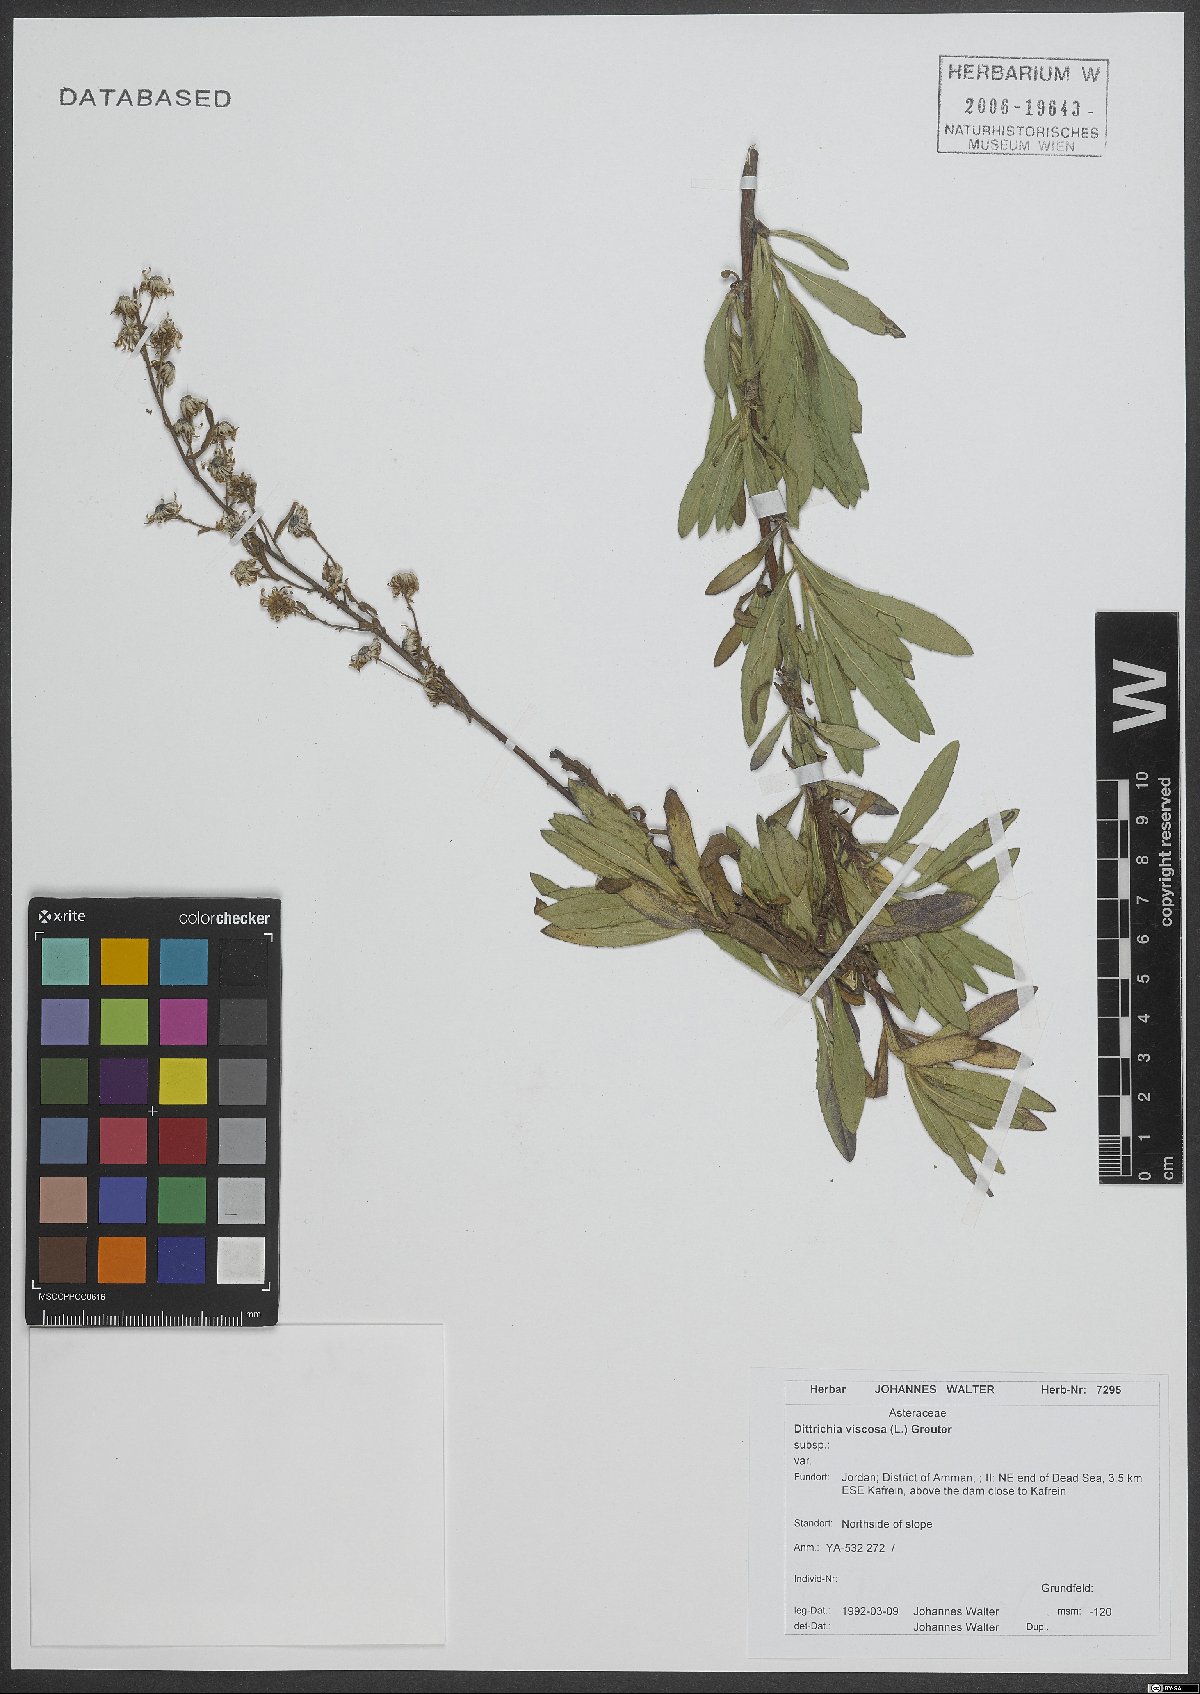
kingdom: Plantae
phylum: Tracheophyta
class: Magnoliopsida
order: Asterales
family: Asteraceae
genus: Dittrichia
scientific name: Dittrichia viscosa
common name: Woody fleabane
